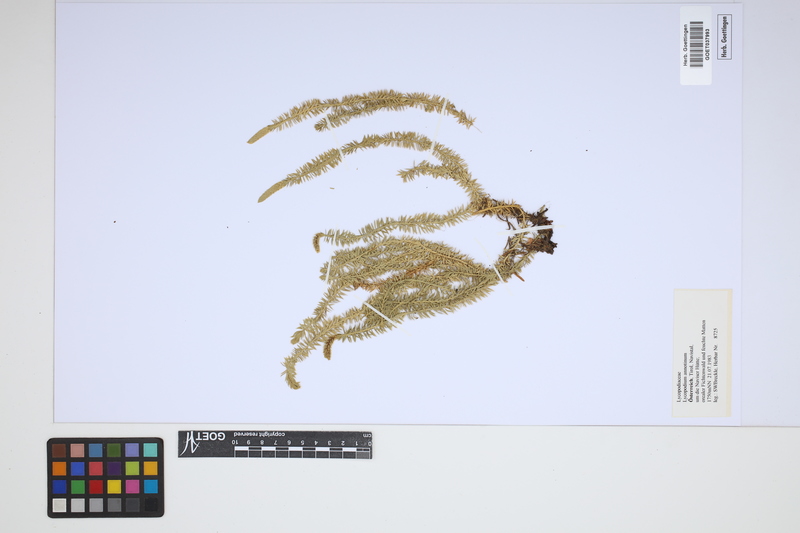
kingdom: Plantae
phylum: Tracheophyta
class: Lycopodiopsida
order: Lycopodiales
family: Lycopodiaceae
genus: Spinulum
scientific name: Spinulum annotinum
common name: Interrupted club-moss
